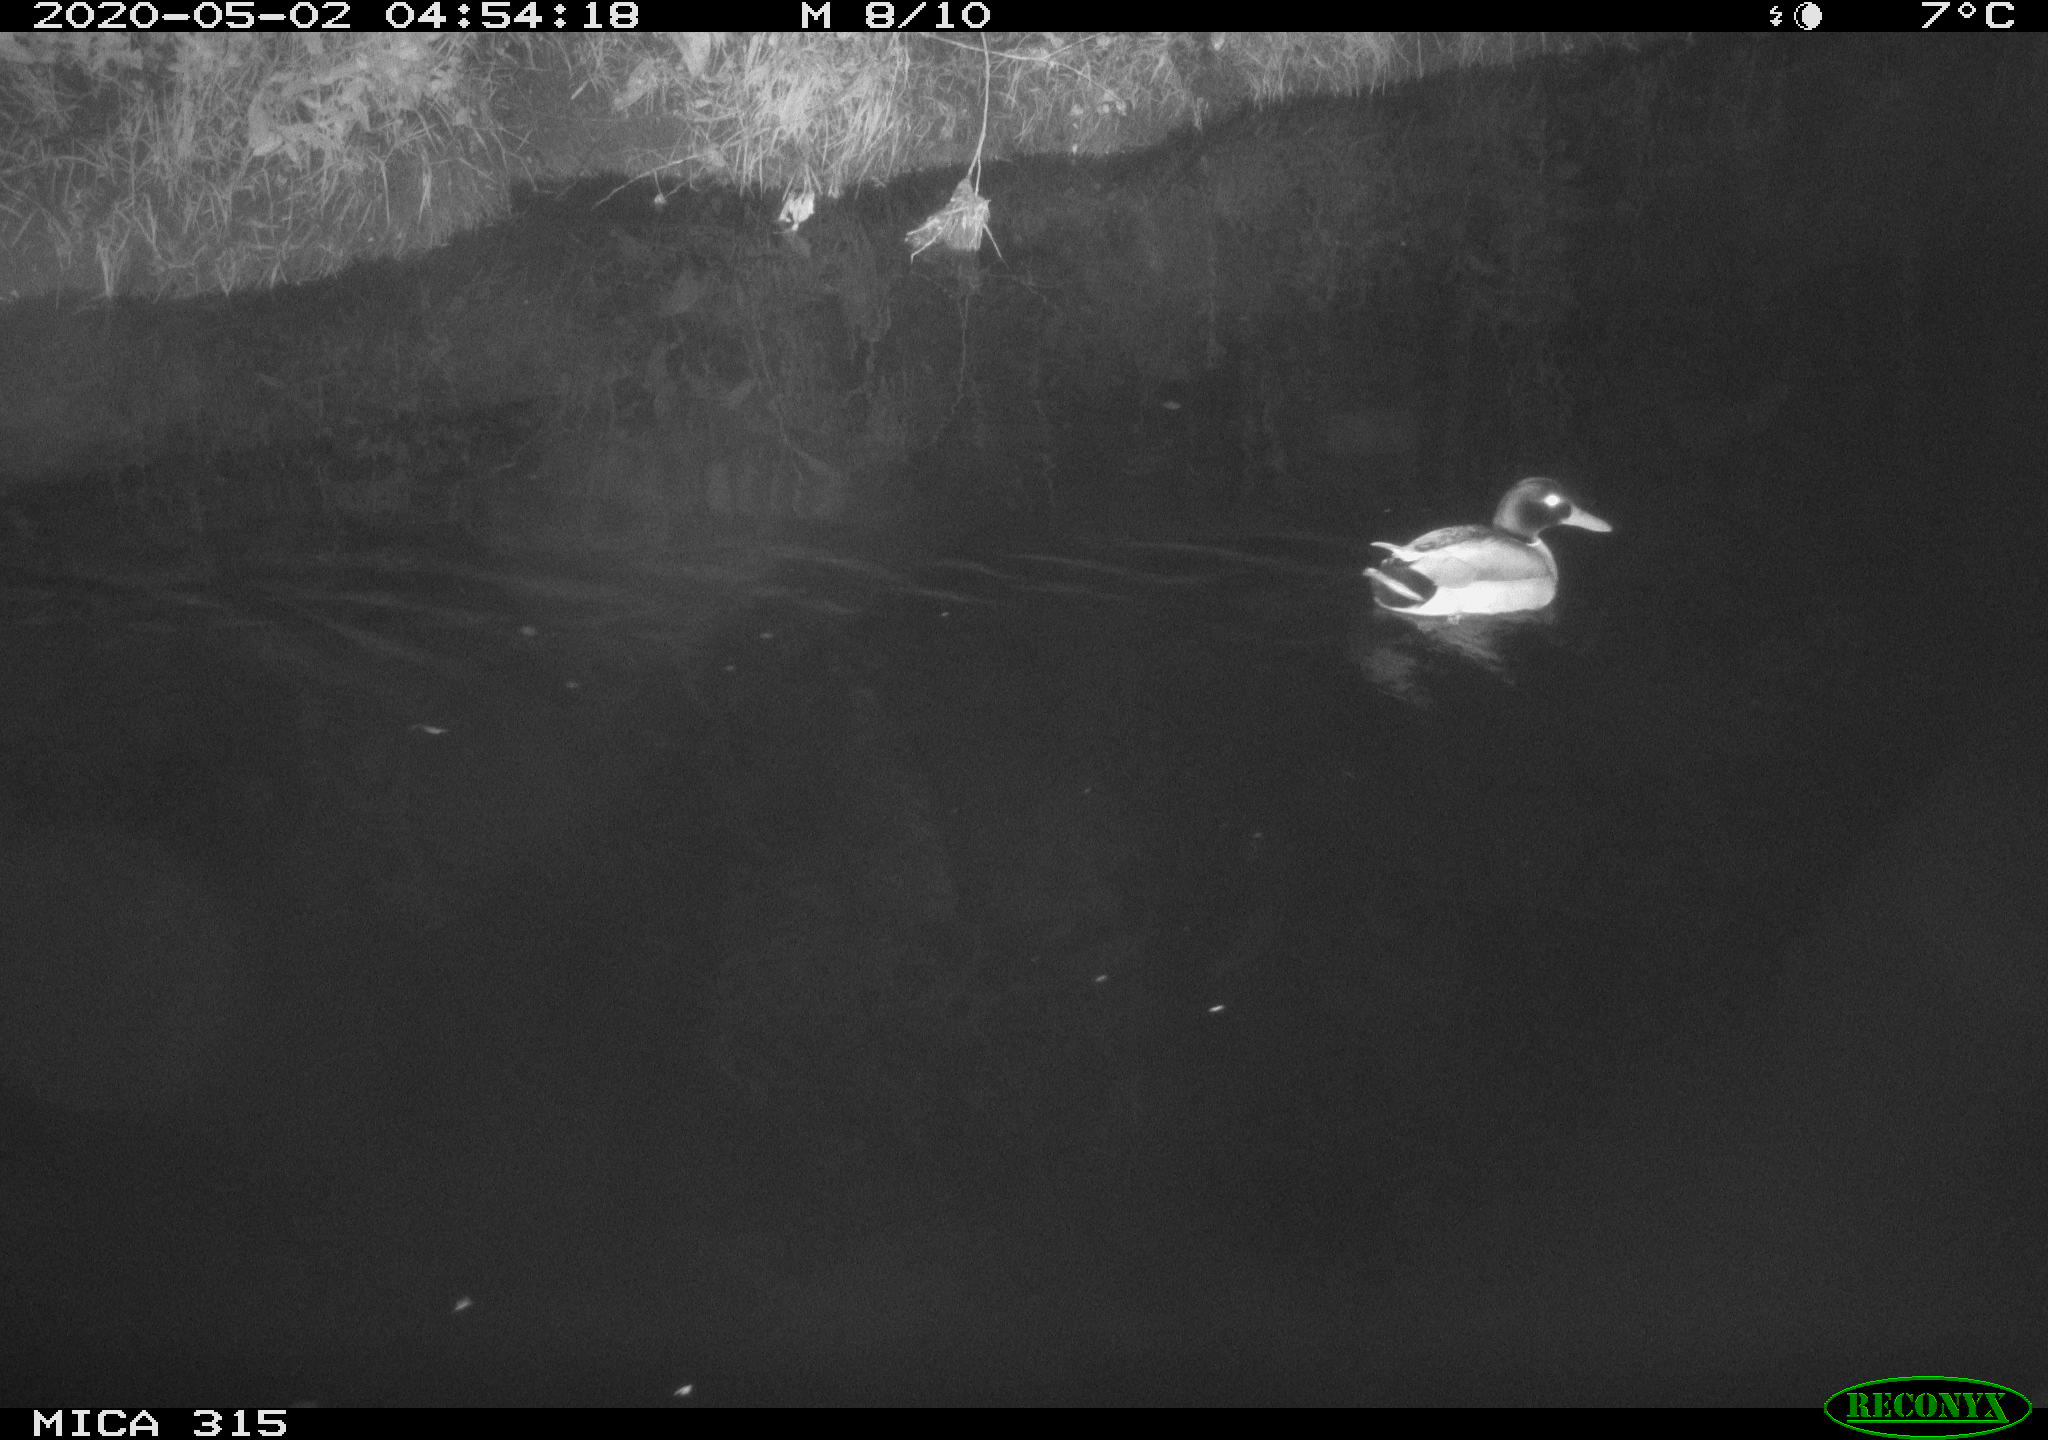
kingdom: Animalia
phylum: Chordata
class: Aves
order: Anseriformes
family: Anatidae
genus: Anas
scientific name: Anas platyrhynchos
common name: Mallard
